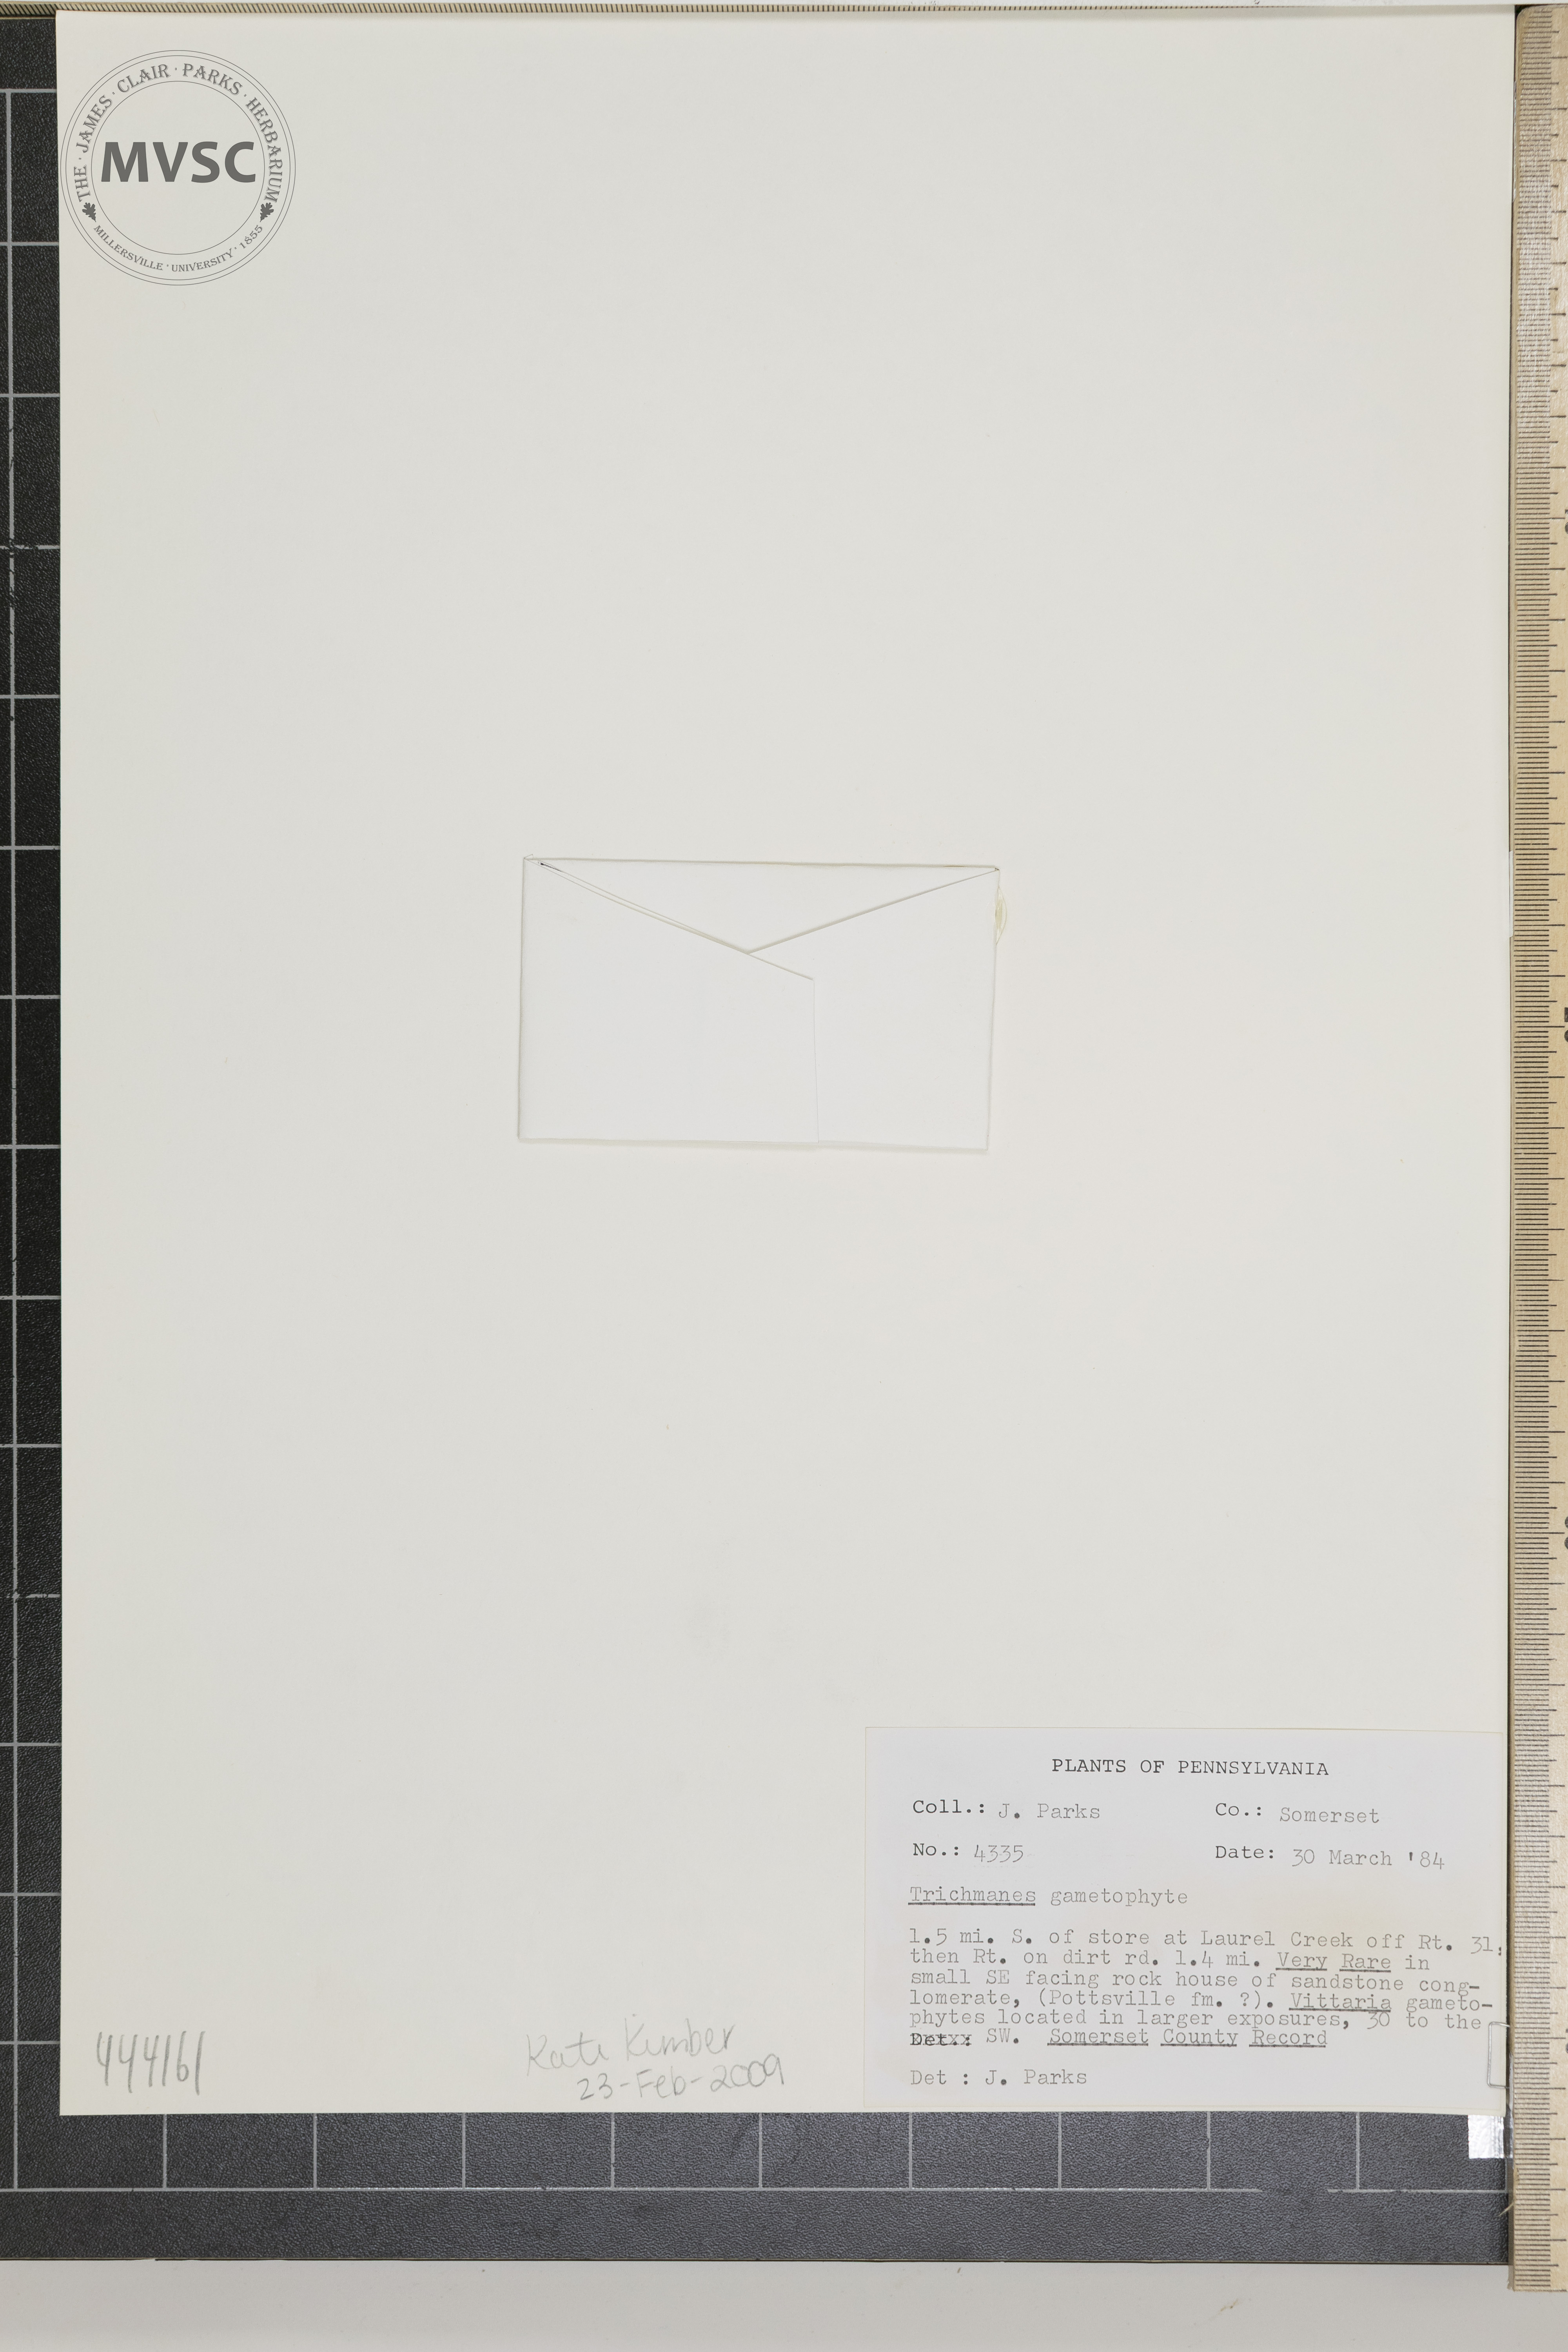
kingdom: Plantae
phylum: Tracheophyta
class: Polypodiopsida
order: Hymenophyllales
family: Hymenophyllaceae
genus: Trichomanes
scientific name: Trichomanes
